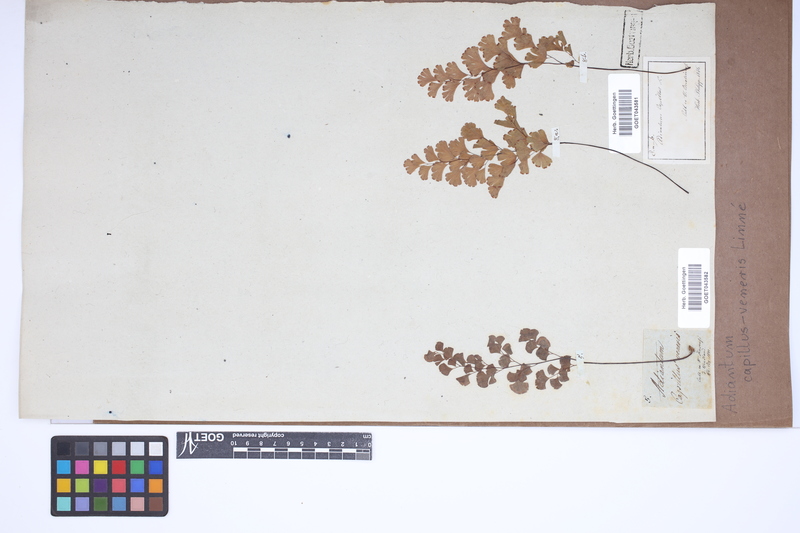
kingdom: Plantae
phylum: Tracheophyta
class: Polypodiopsida
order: Polypodiales
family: Pteridaceae
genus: Adiantum
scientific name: Adiantum capillus-veneris
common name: Maidenhair fern
